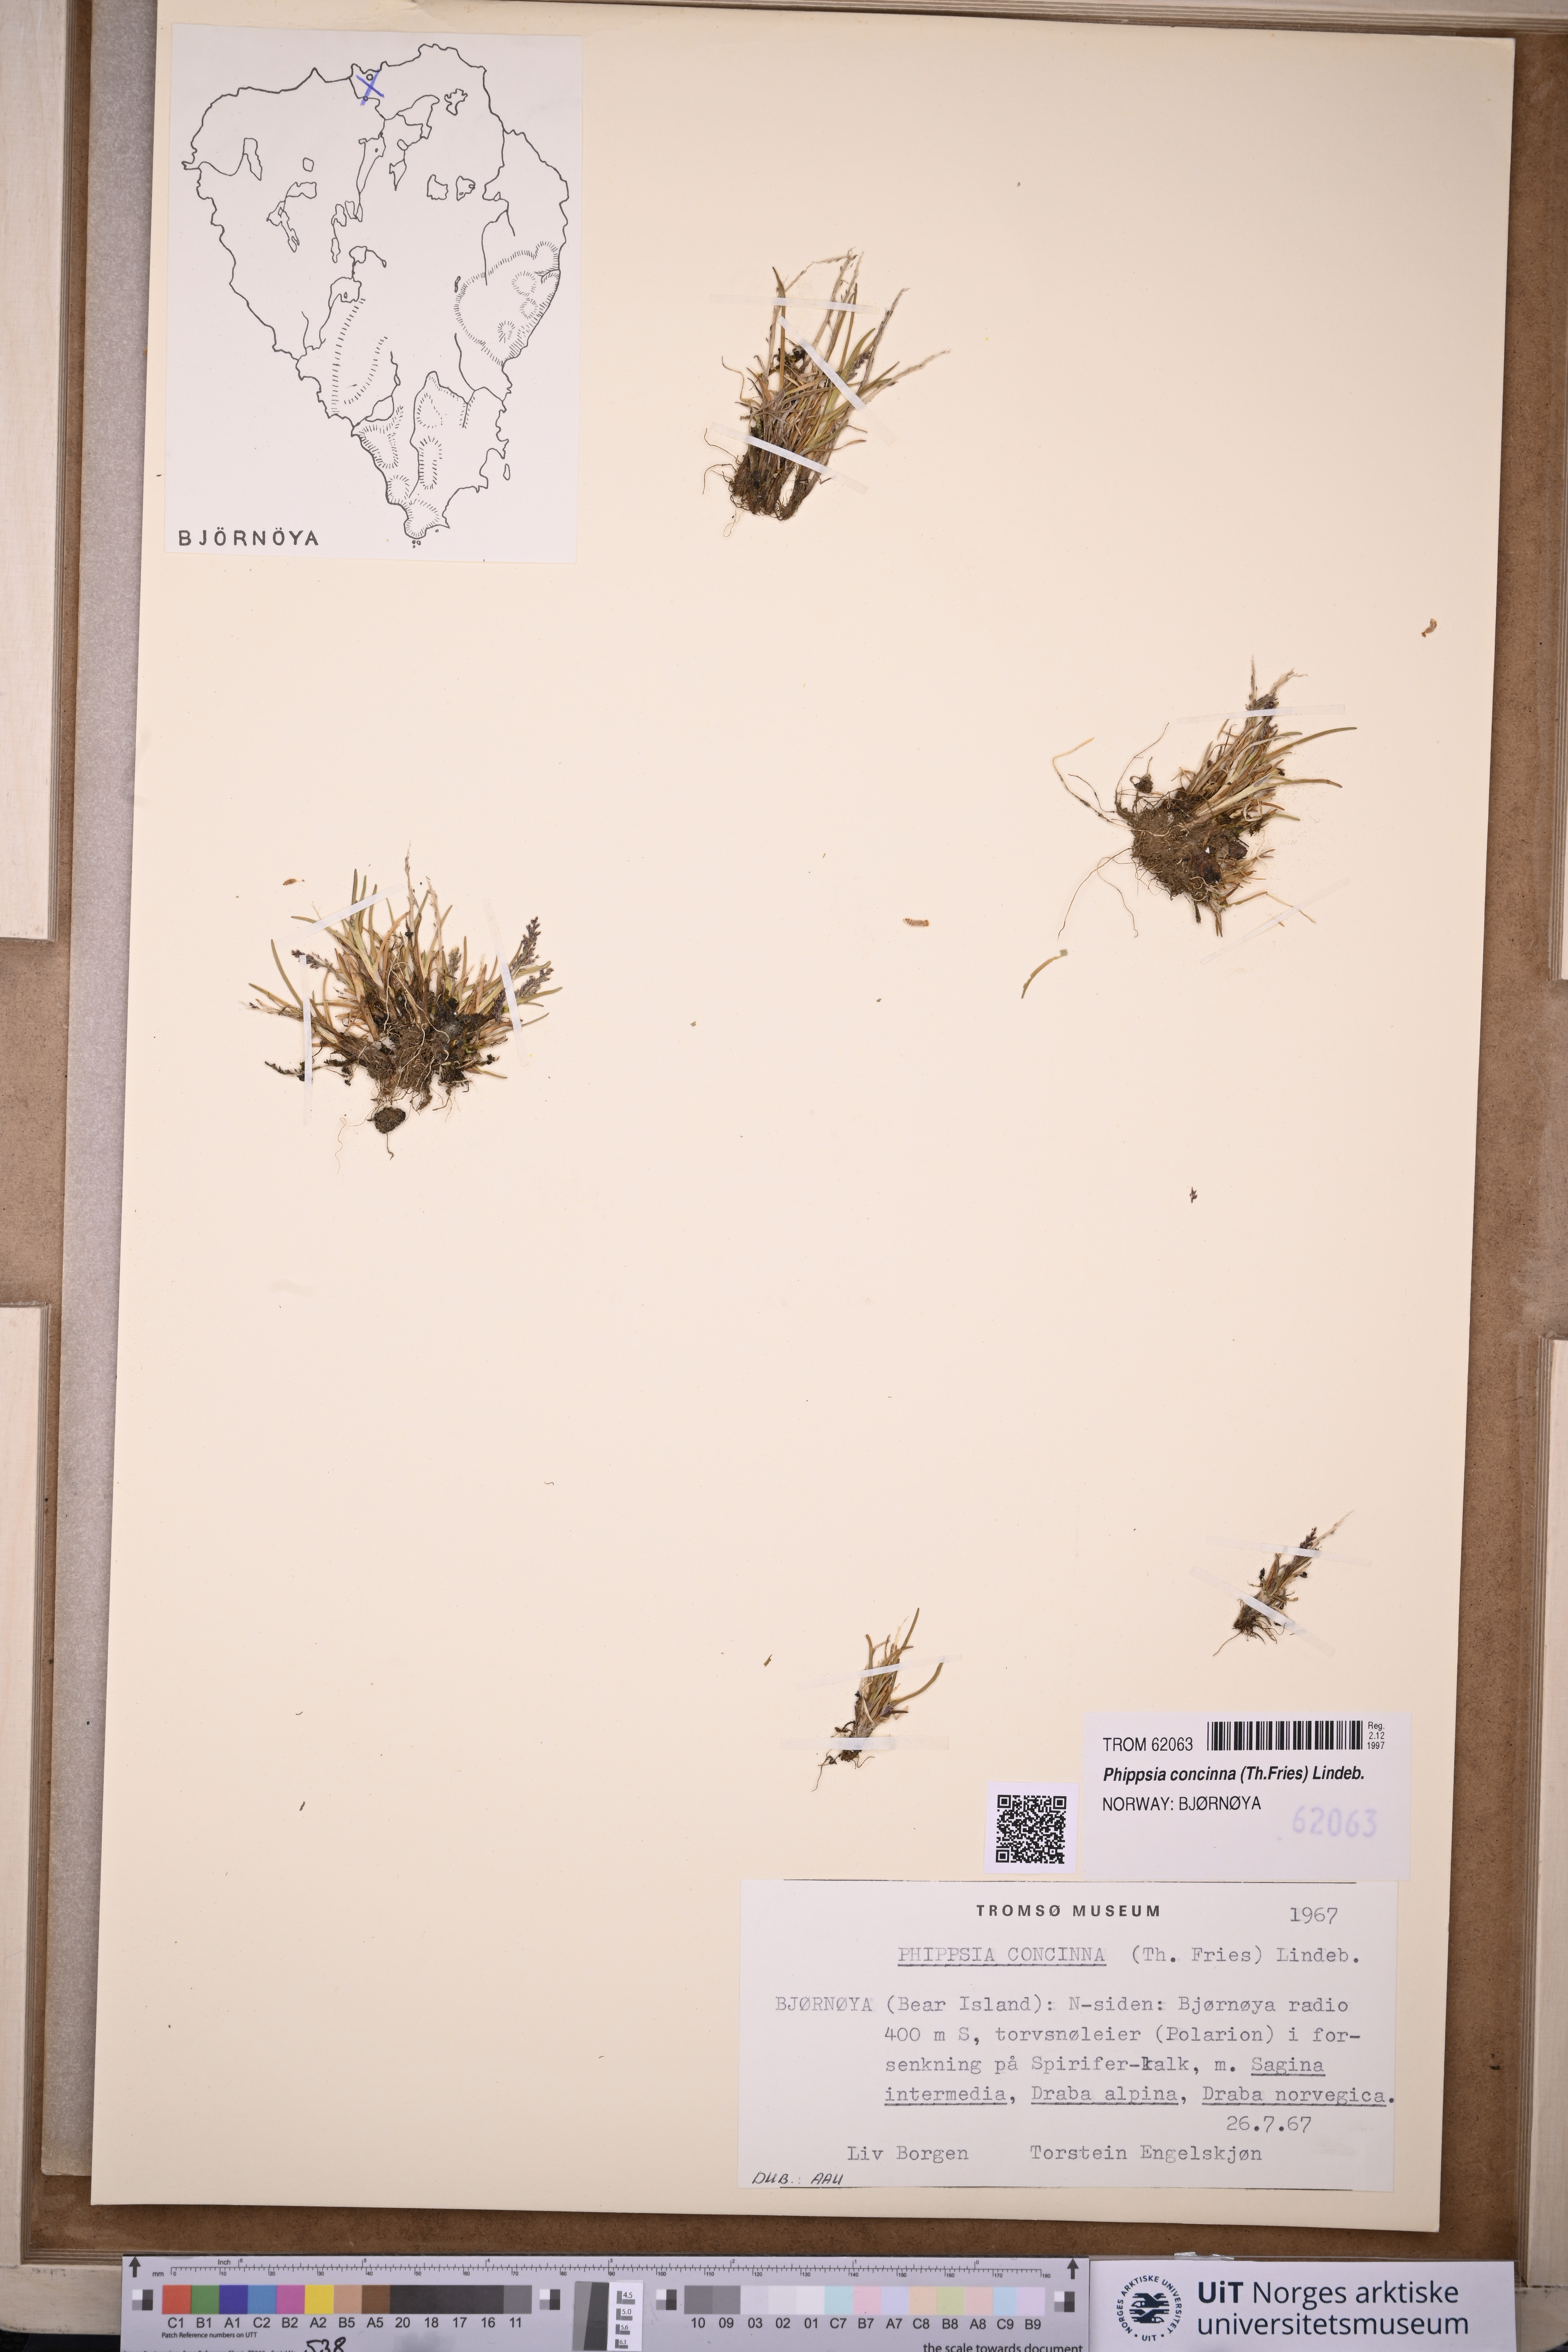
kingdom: Plantae
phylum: Tracheophyta
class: Liliopsida
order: Poales
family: Poaceae
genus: Phippsia
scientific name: Phippsia concinna
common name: Snowgrass
